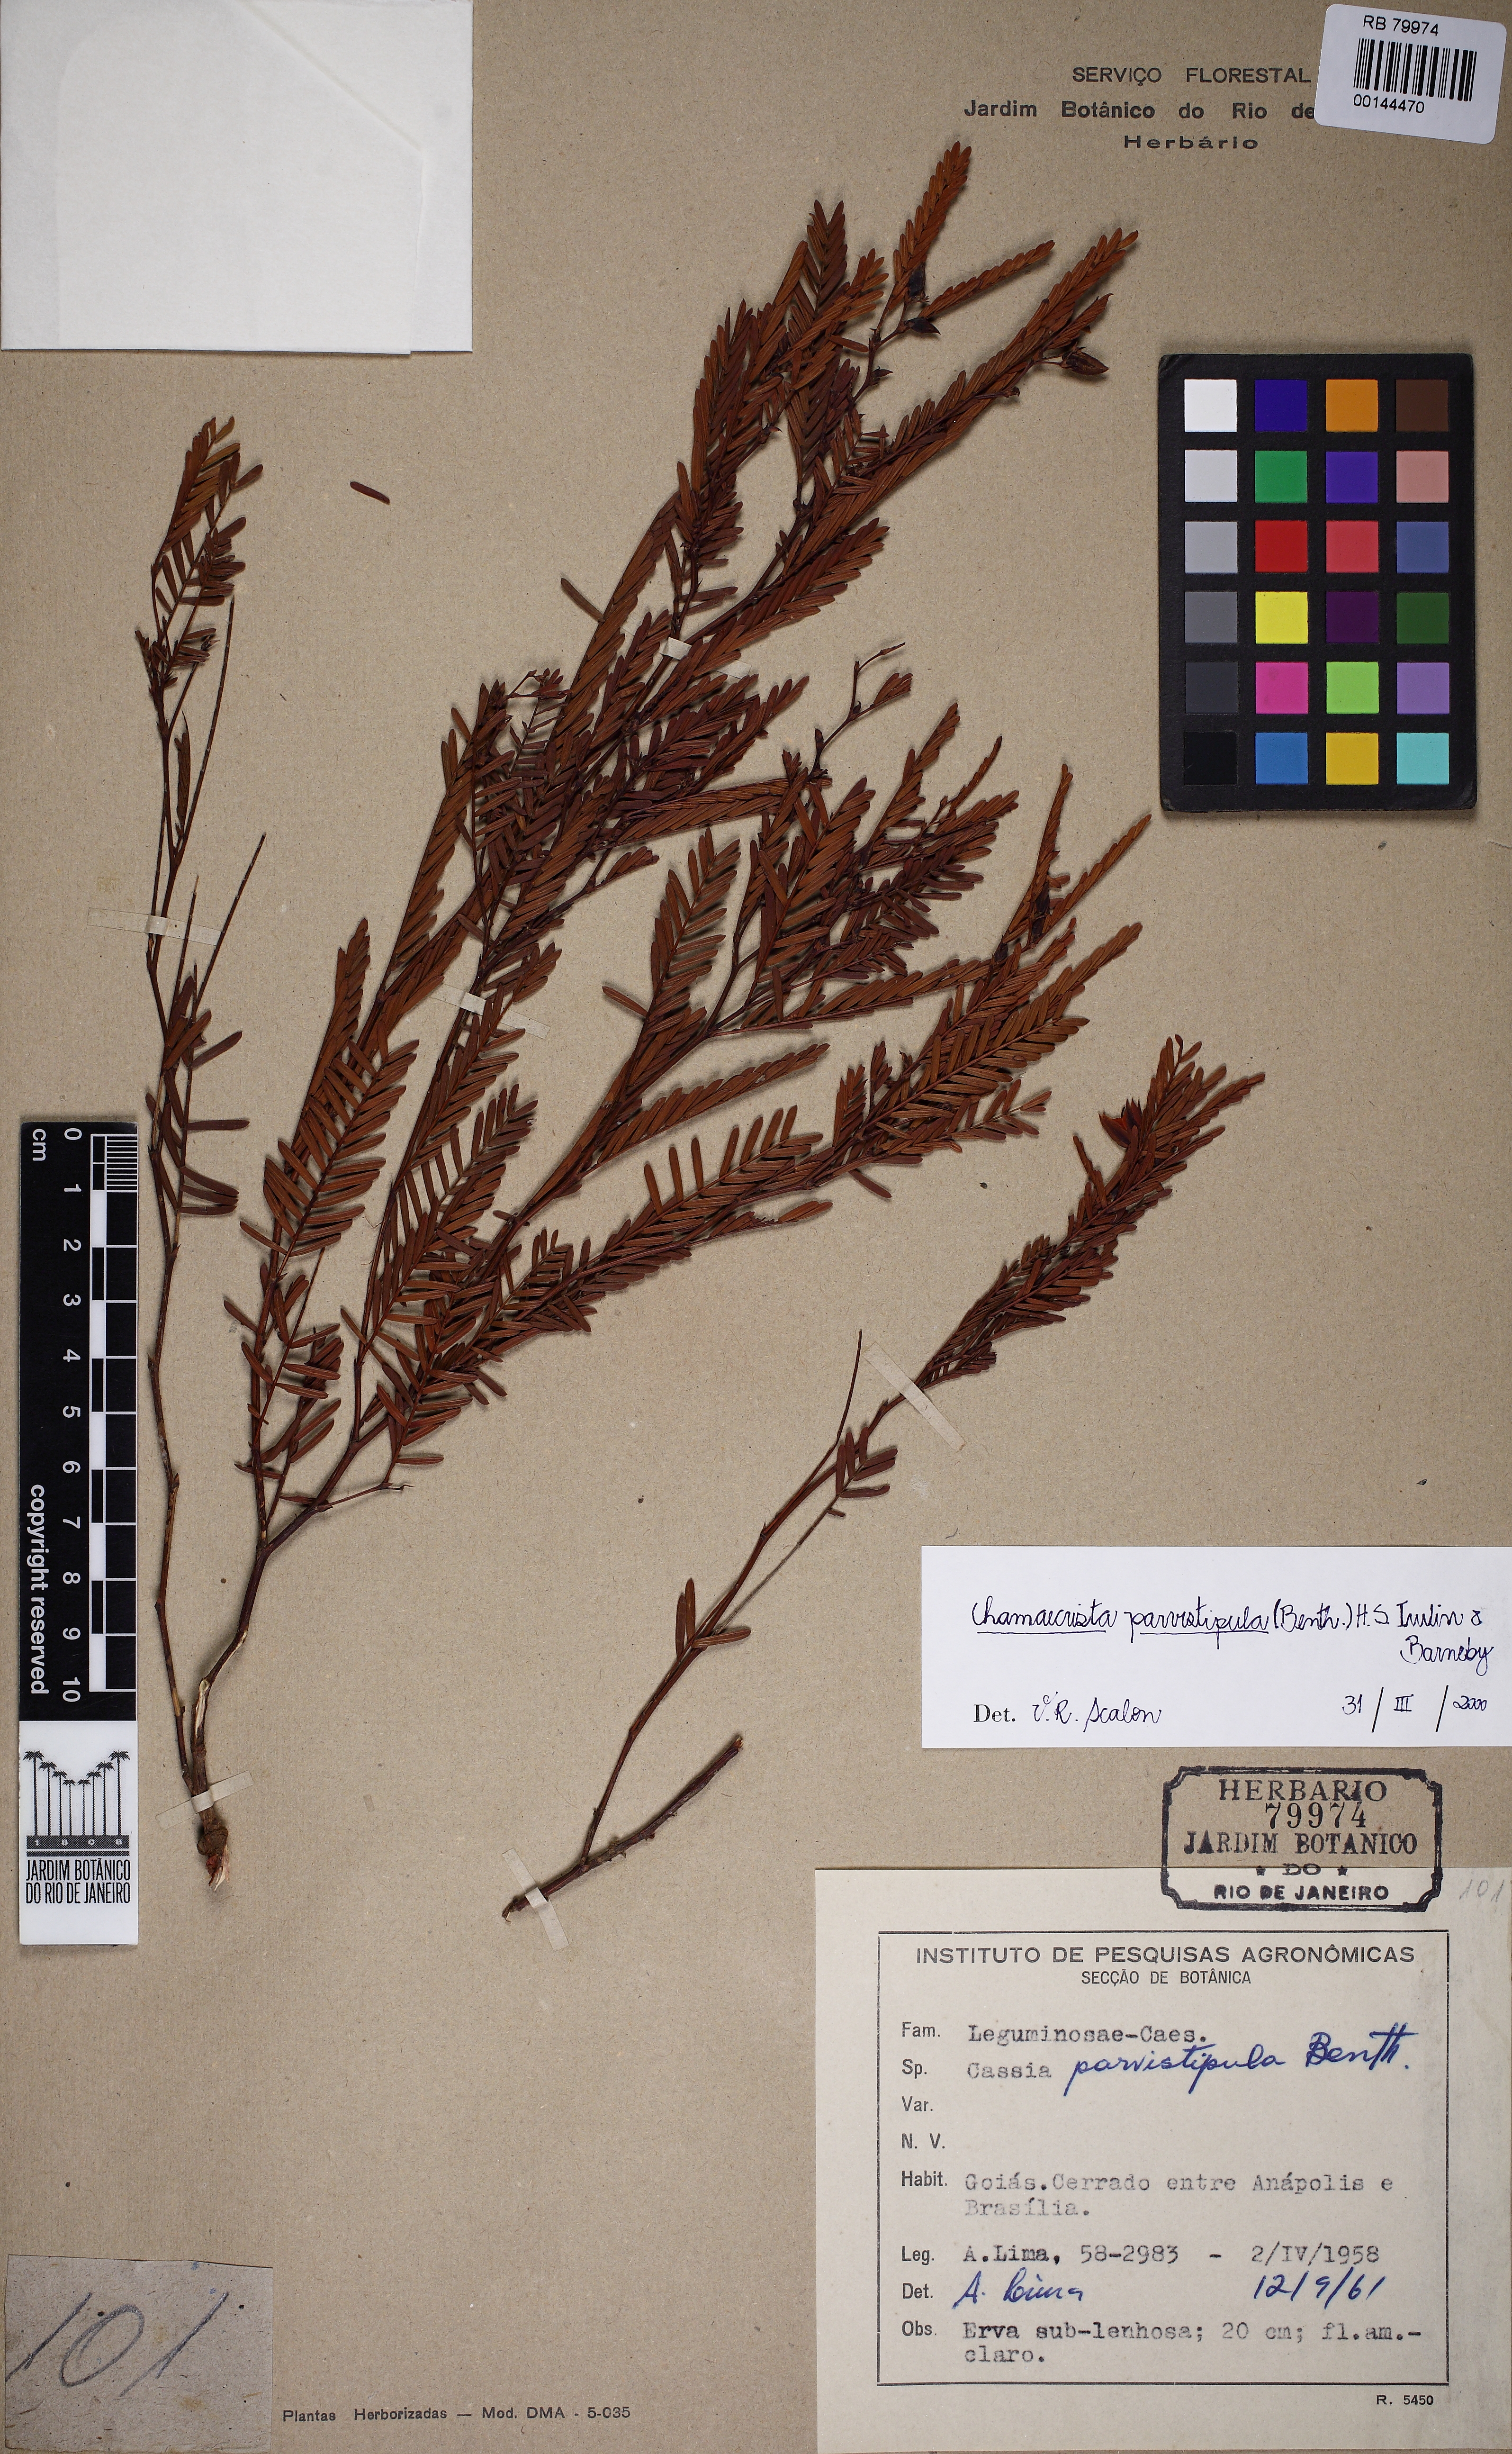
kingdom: Plantae
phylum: Tracheophyta
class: Magnoliopsida
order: Fabales
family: Fabaceae
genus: Chamaecrista
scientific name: Chamaecrista parvistipula
